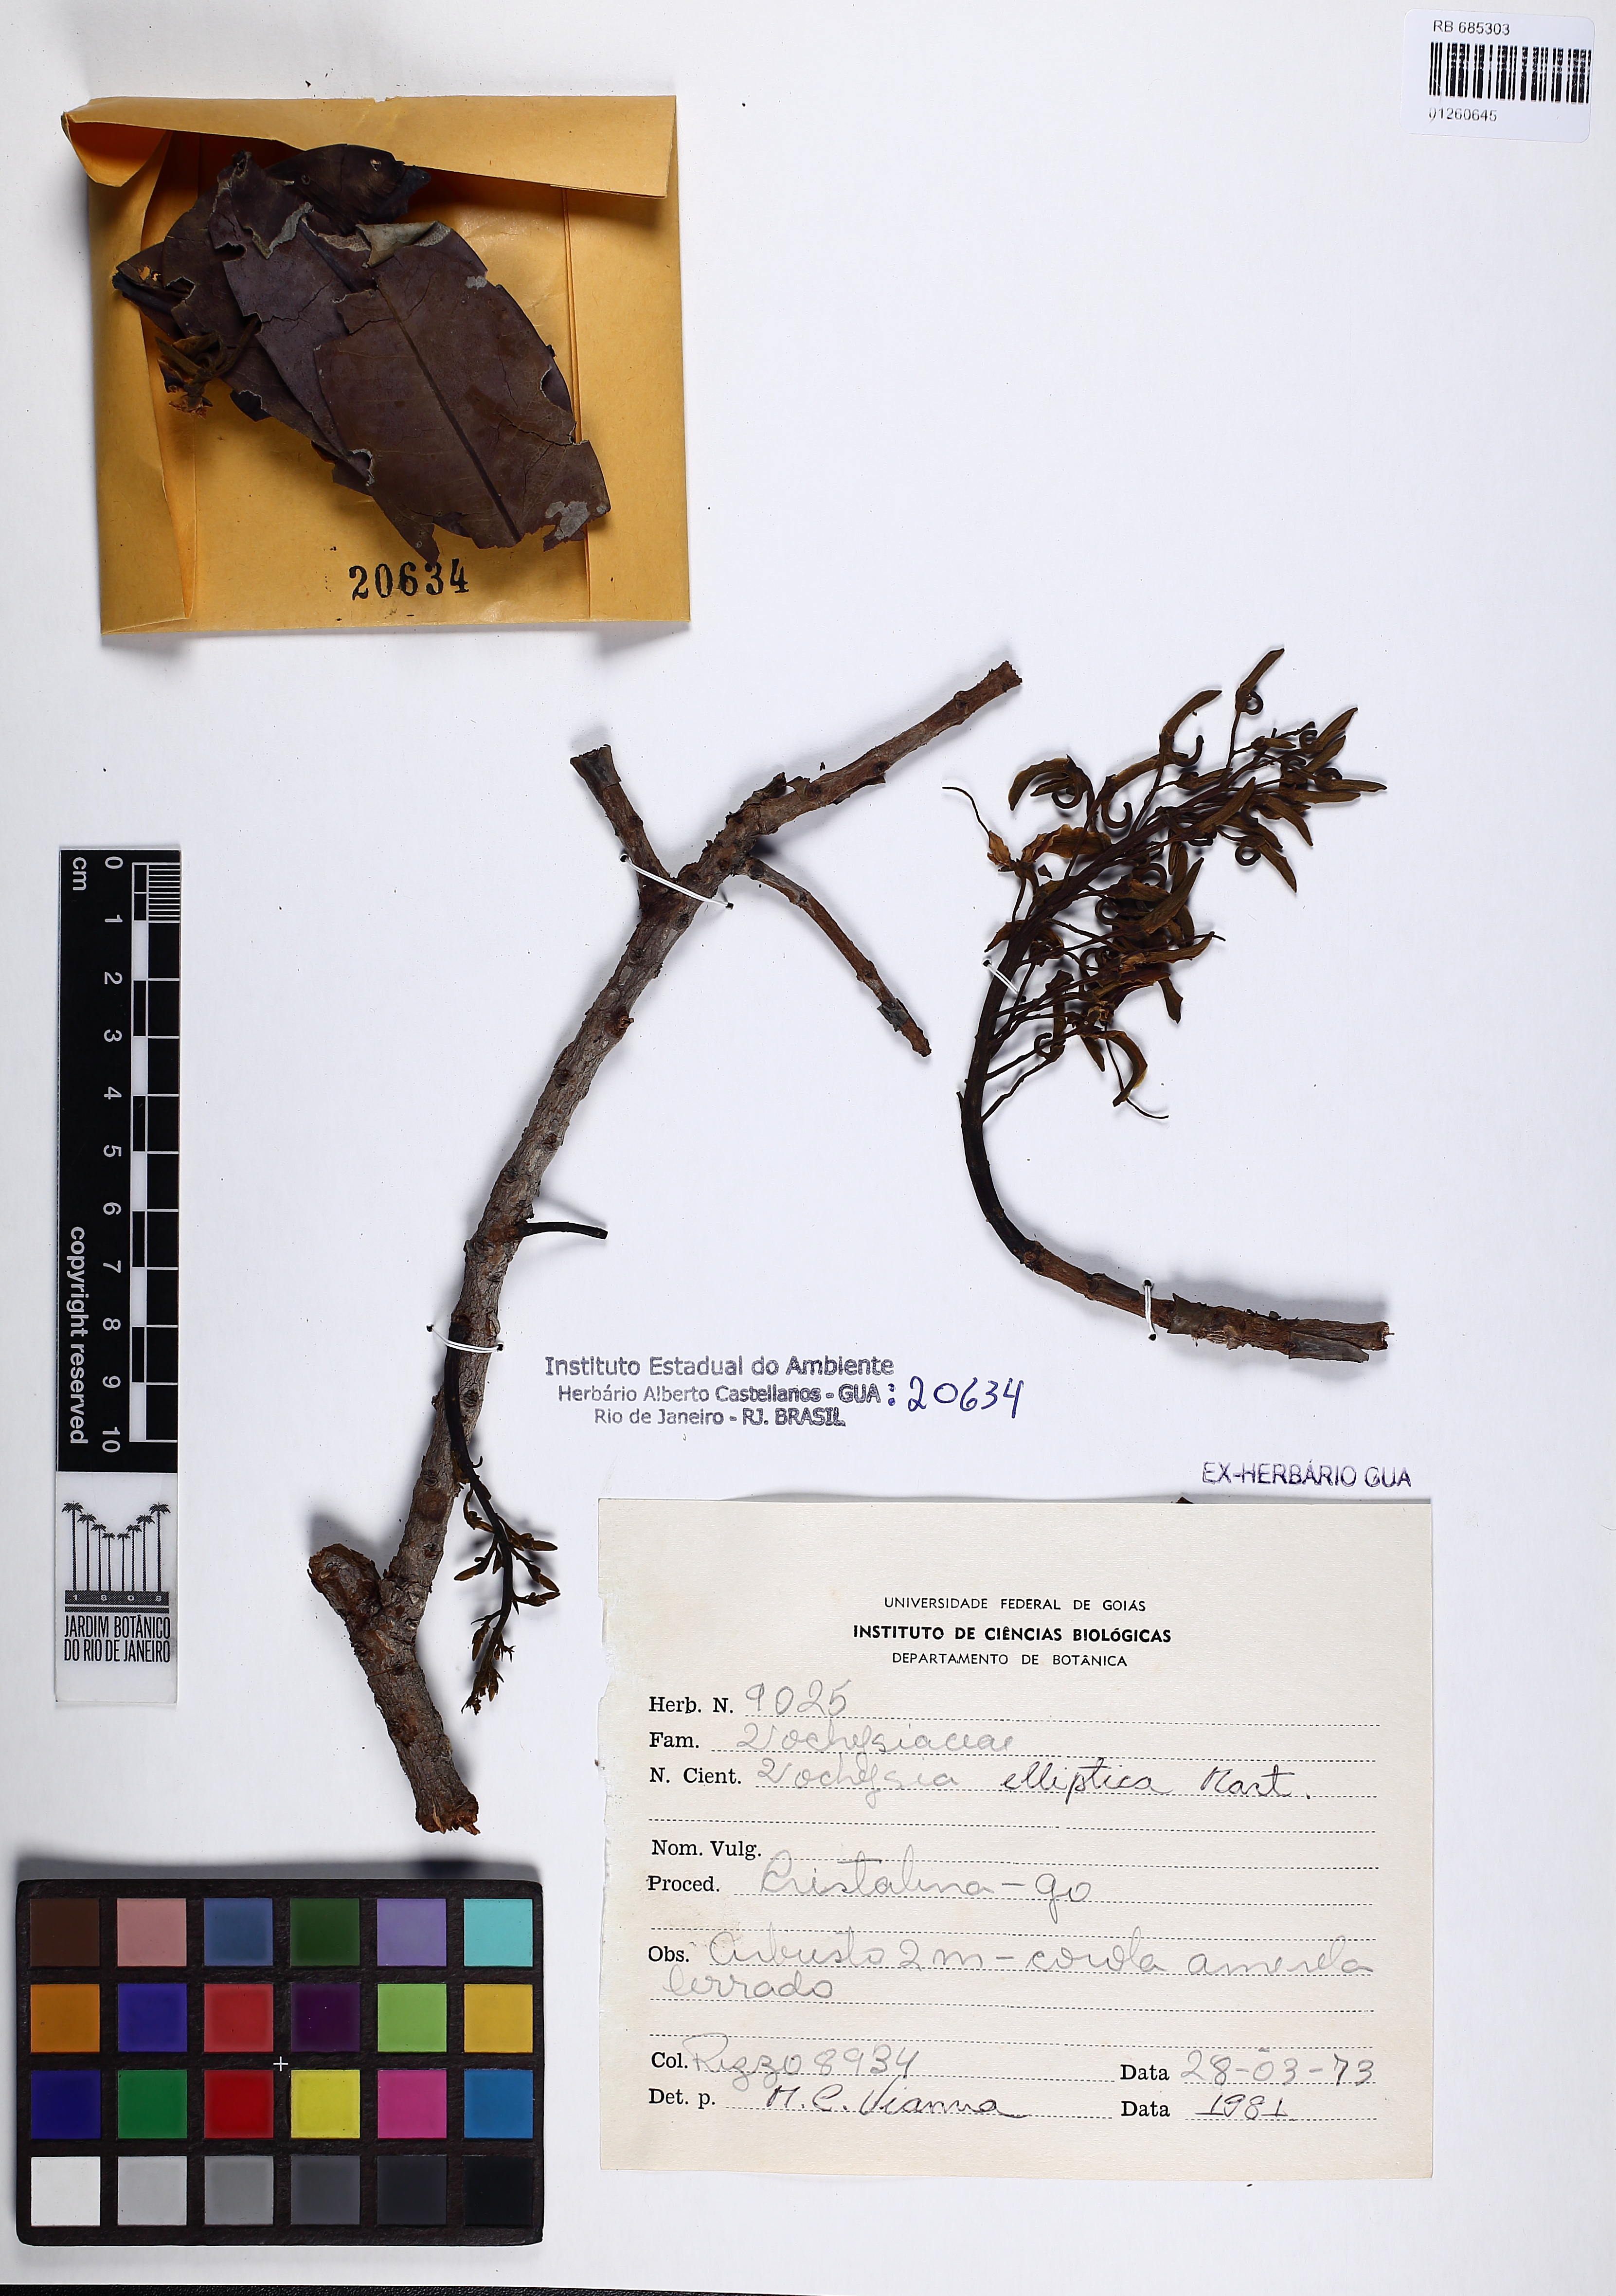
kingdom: Plantae
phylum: Tracheophyta
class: Magnoliopsida
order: Myrtales
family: Vochysiaceae
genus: Vochysia
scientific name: Vochysia elliptica
